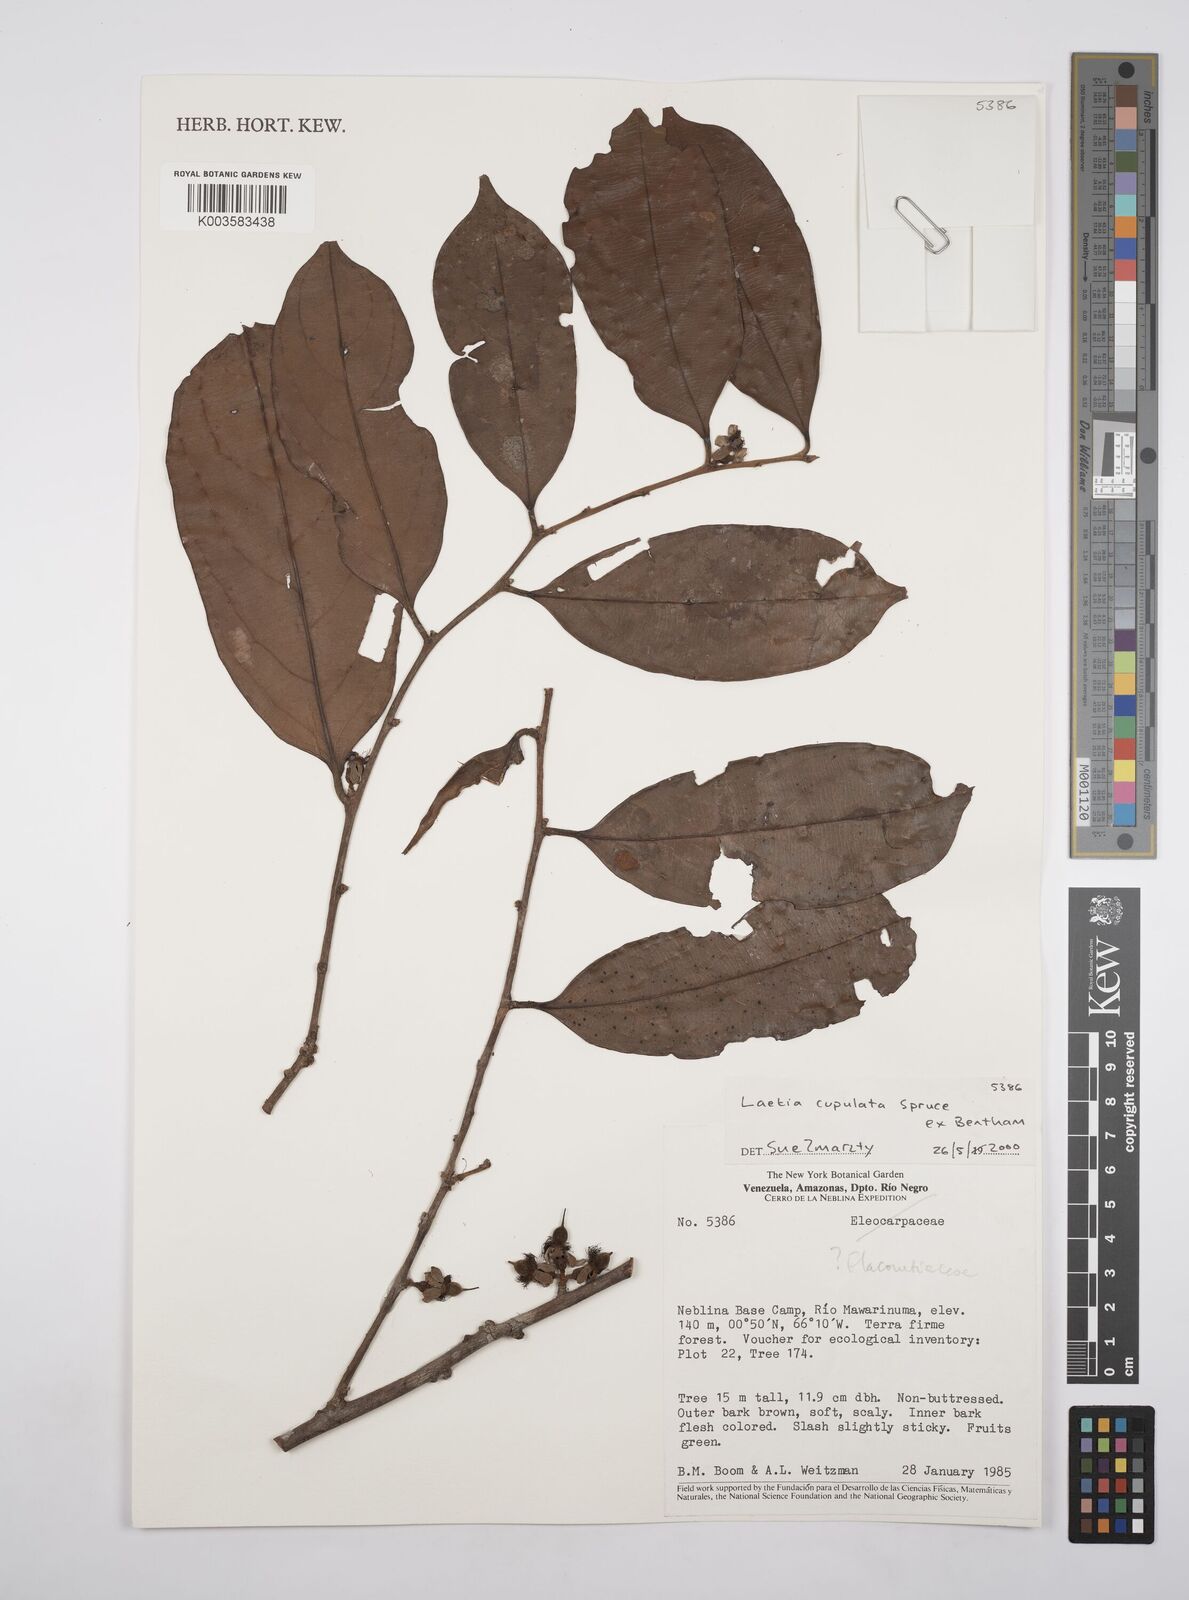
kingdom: Plantae
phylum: Tracheophyta
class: Magnoliopsida
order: Malpighiales
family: Salicaceae
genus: Irenodendron
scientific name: Irenodendron cupulatum
